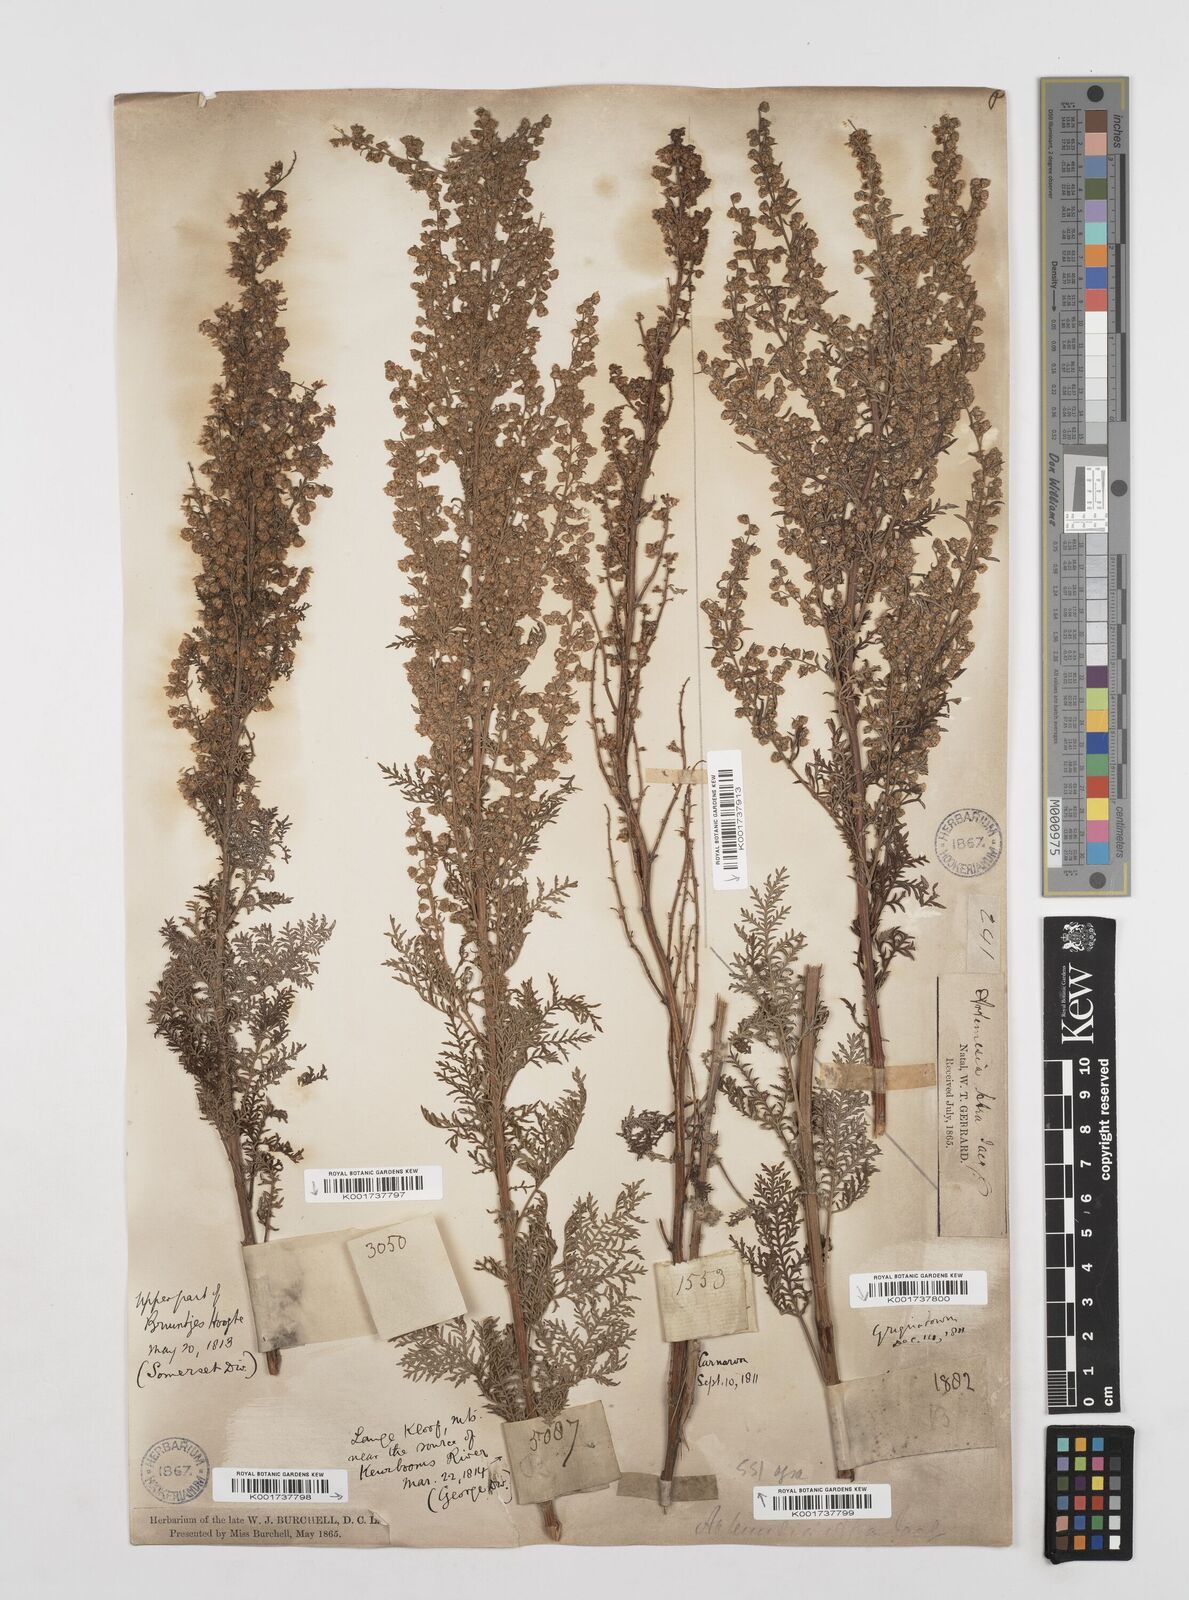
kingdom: Plantae
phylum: Tracheophyta
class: Magnoliopsida
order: Asterales
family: Asteraceae
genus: Artemisia
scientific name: Artemisia afra
